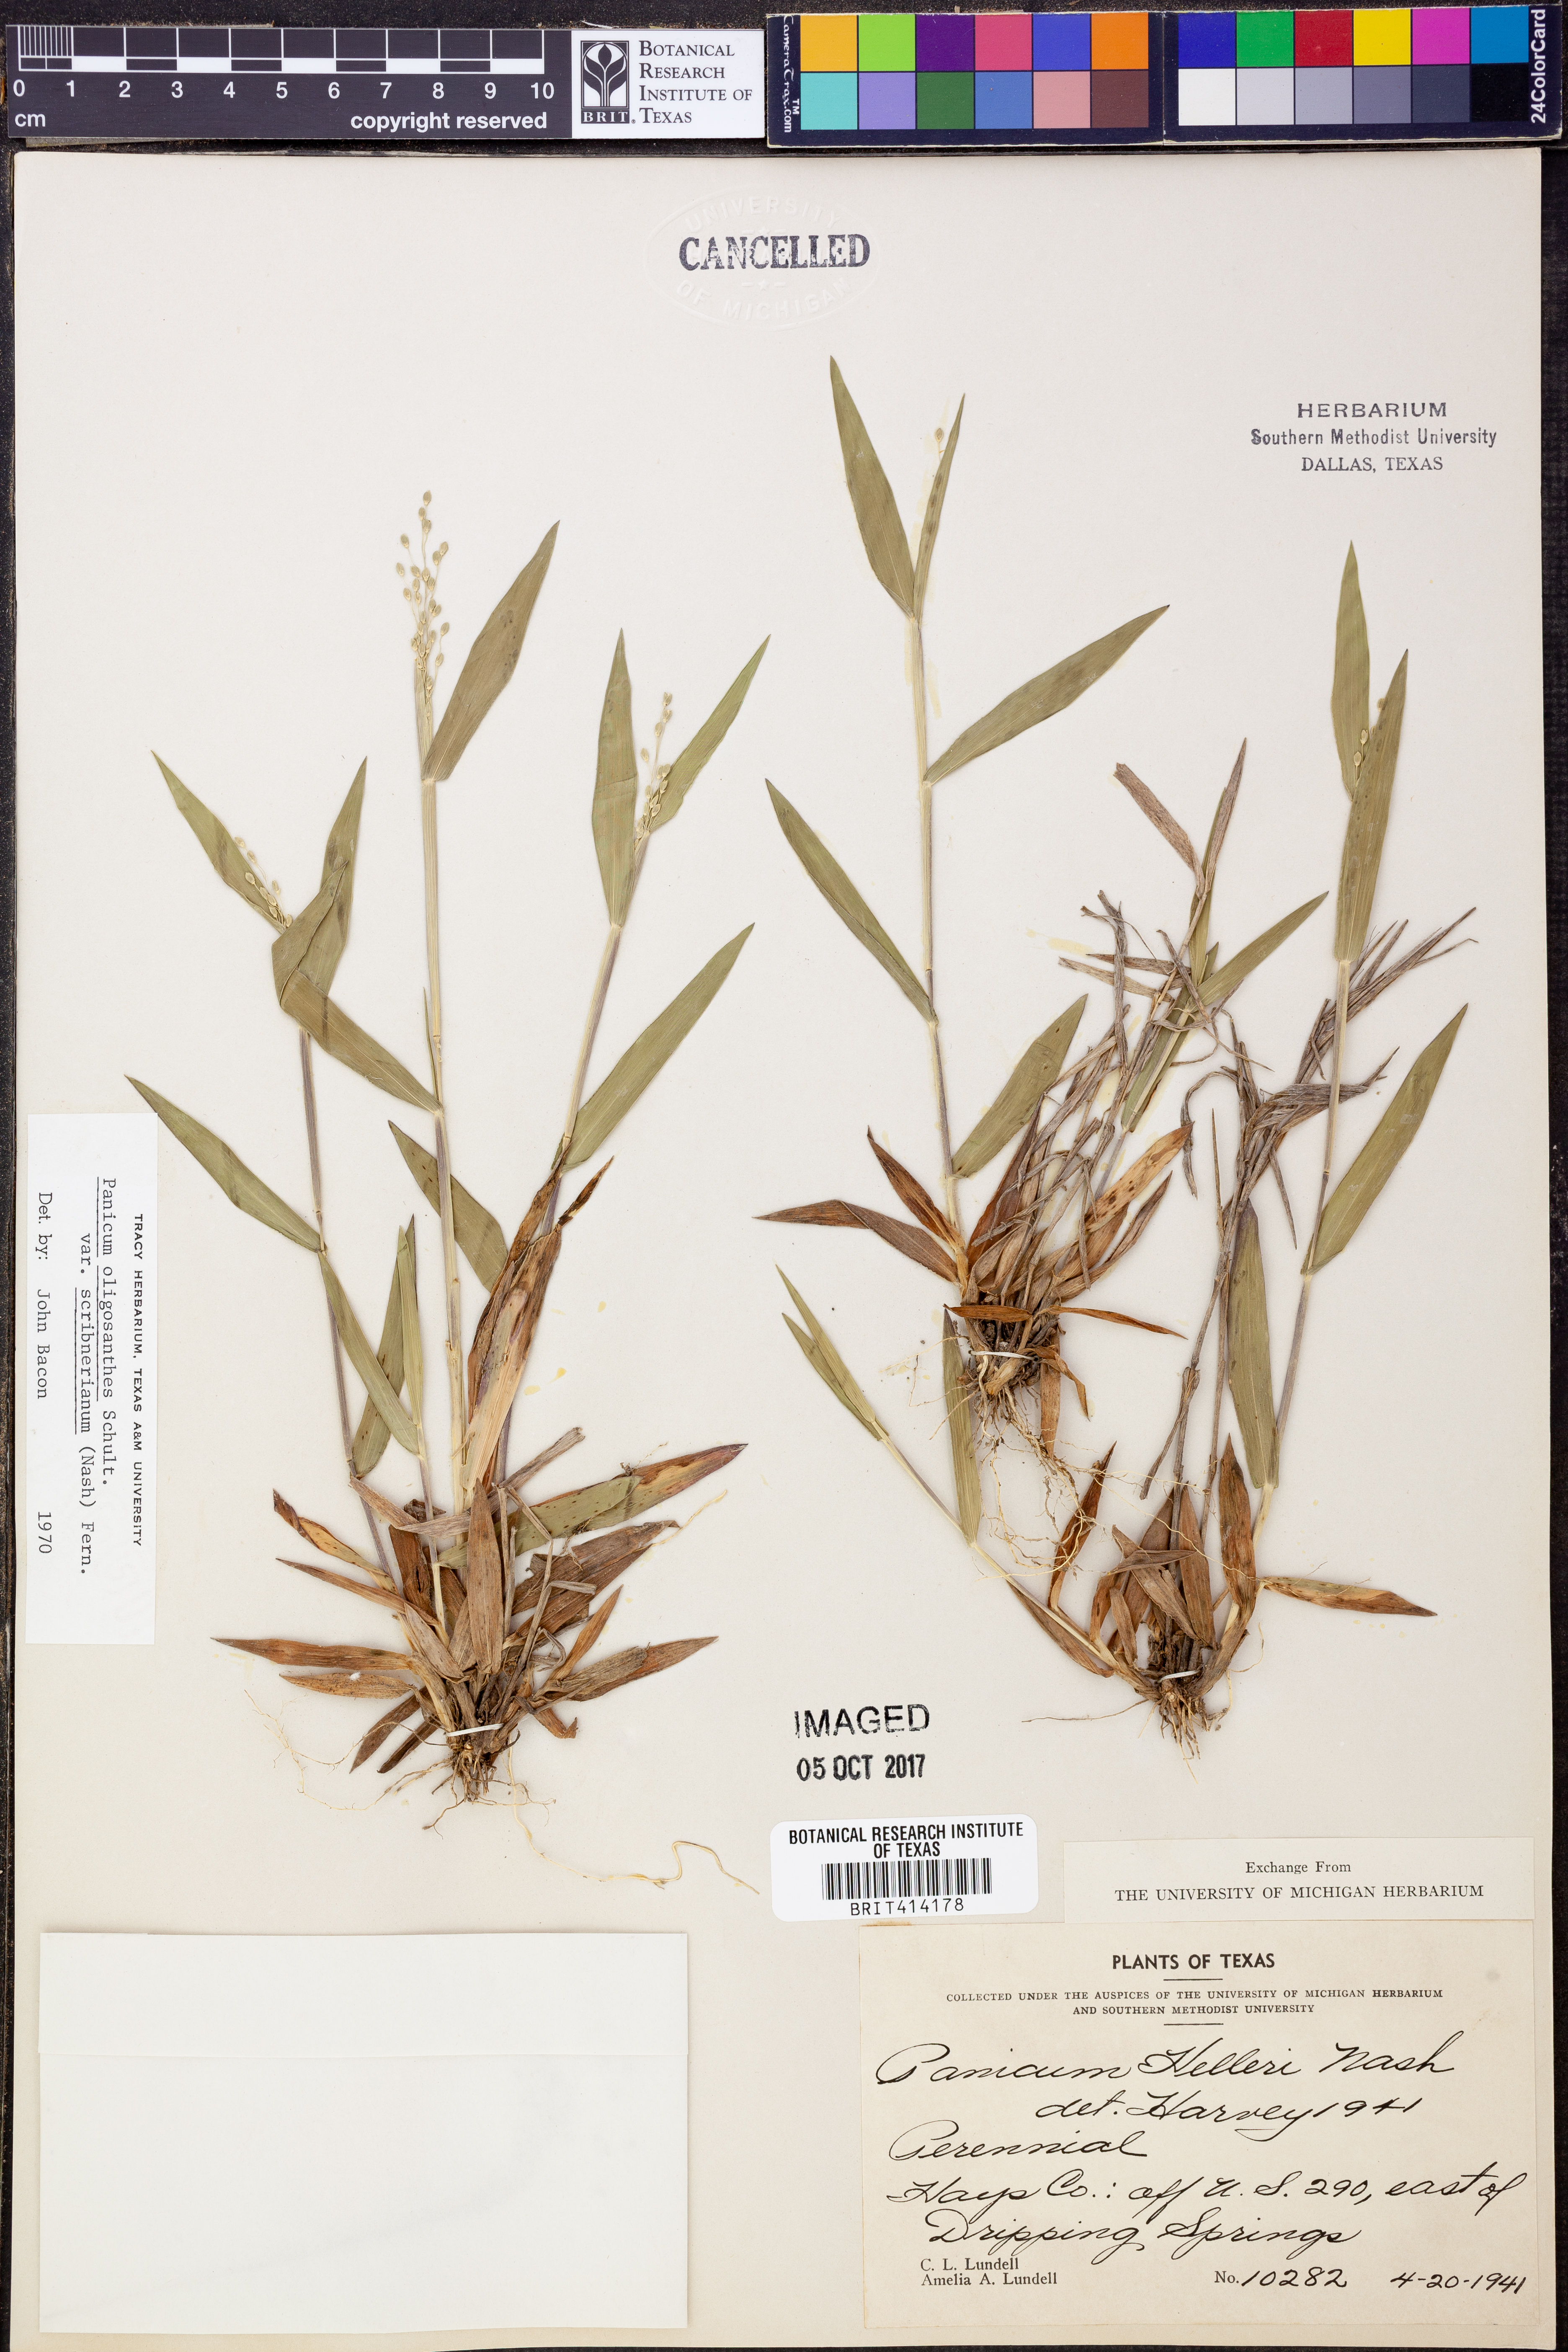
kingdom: Plantae
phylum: Tracheophyta
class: Liliopsida
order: Poales
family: Poaceae
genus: Dichanthelium
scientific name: Dichanthelium oligosanthes
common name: Few-anther obscuregrass
